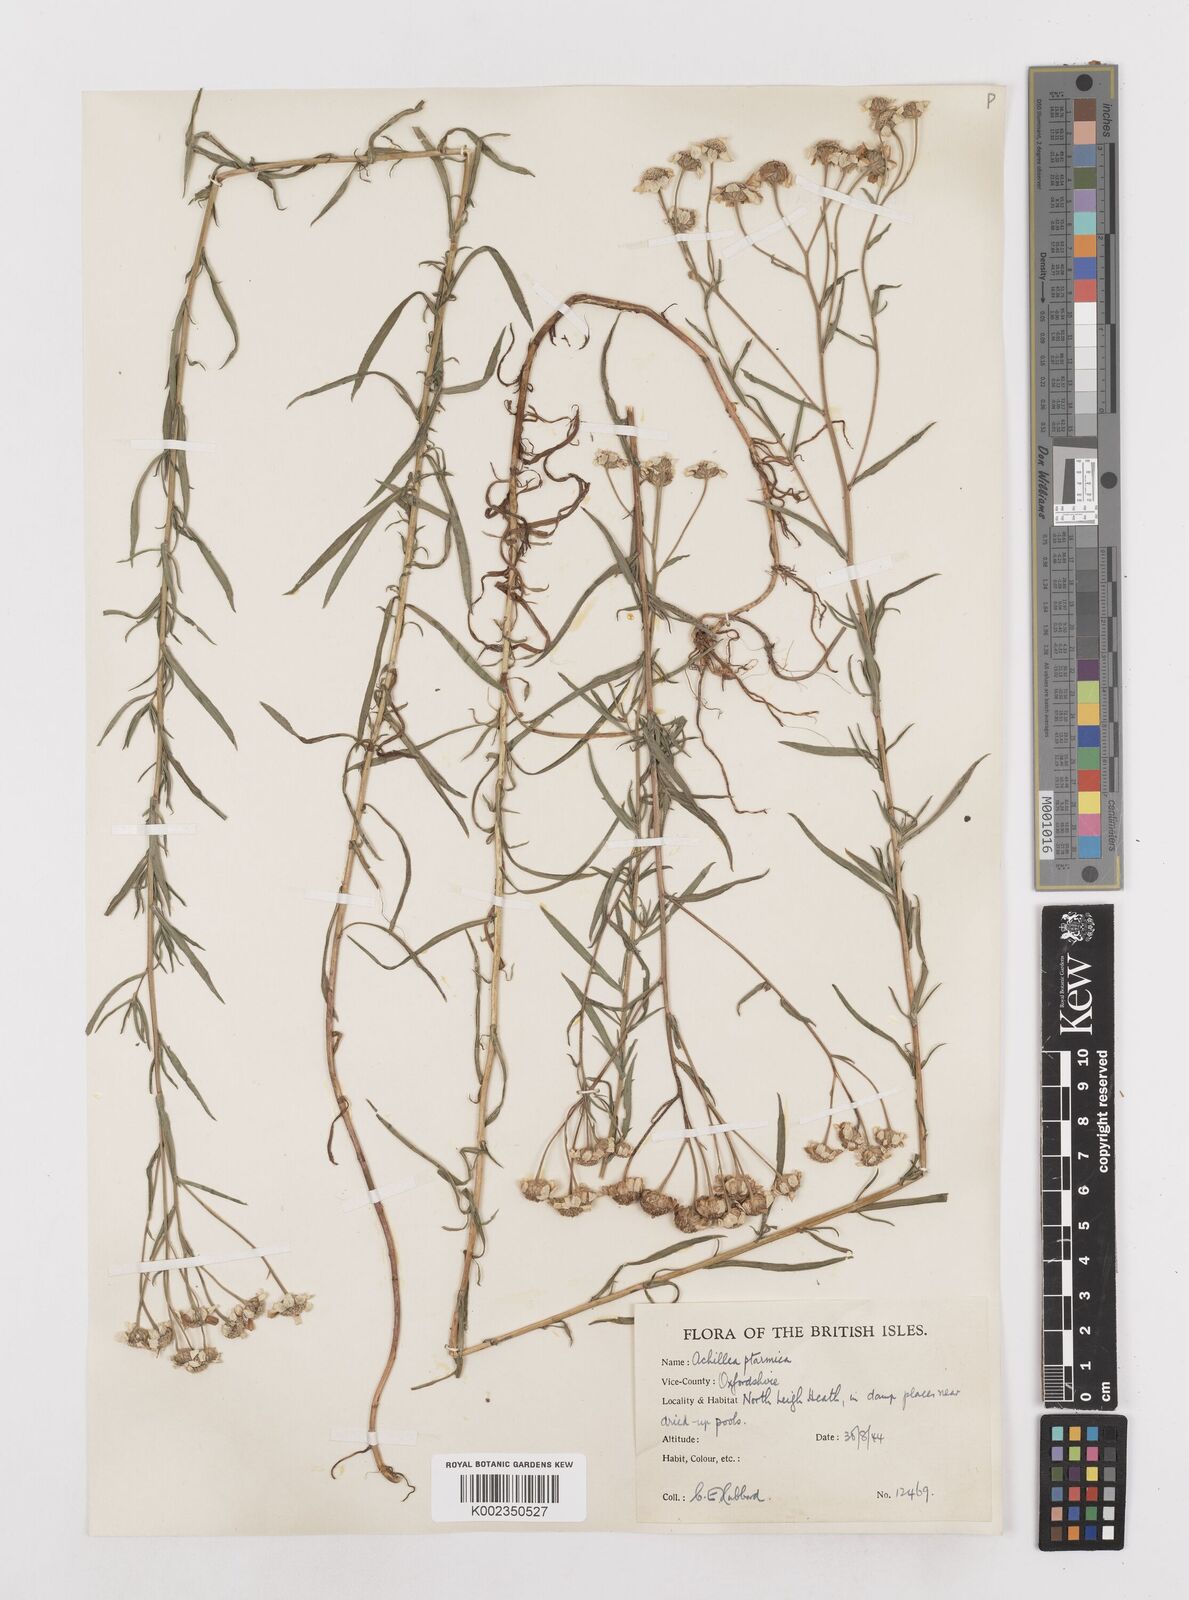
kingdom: Plantae
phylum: Tracheophyta
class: Magnoliopsida
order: Asterales
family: Asteraceae
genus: Achillea
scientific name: Achillea ptarmica
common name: Sneezeweed
